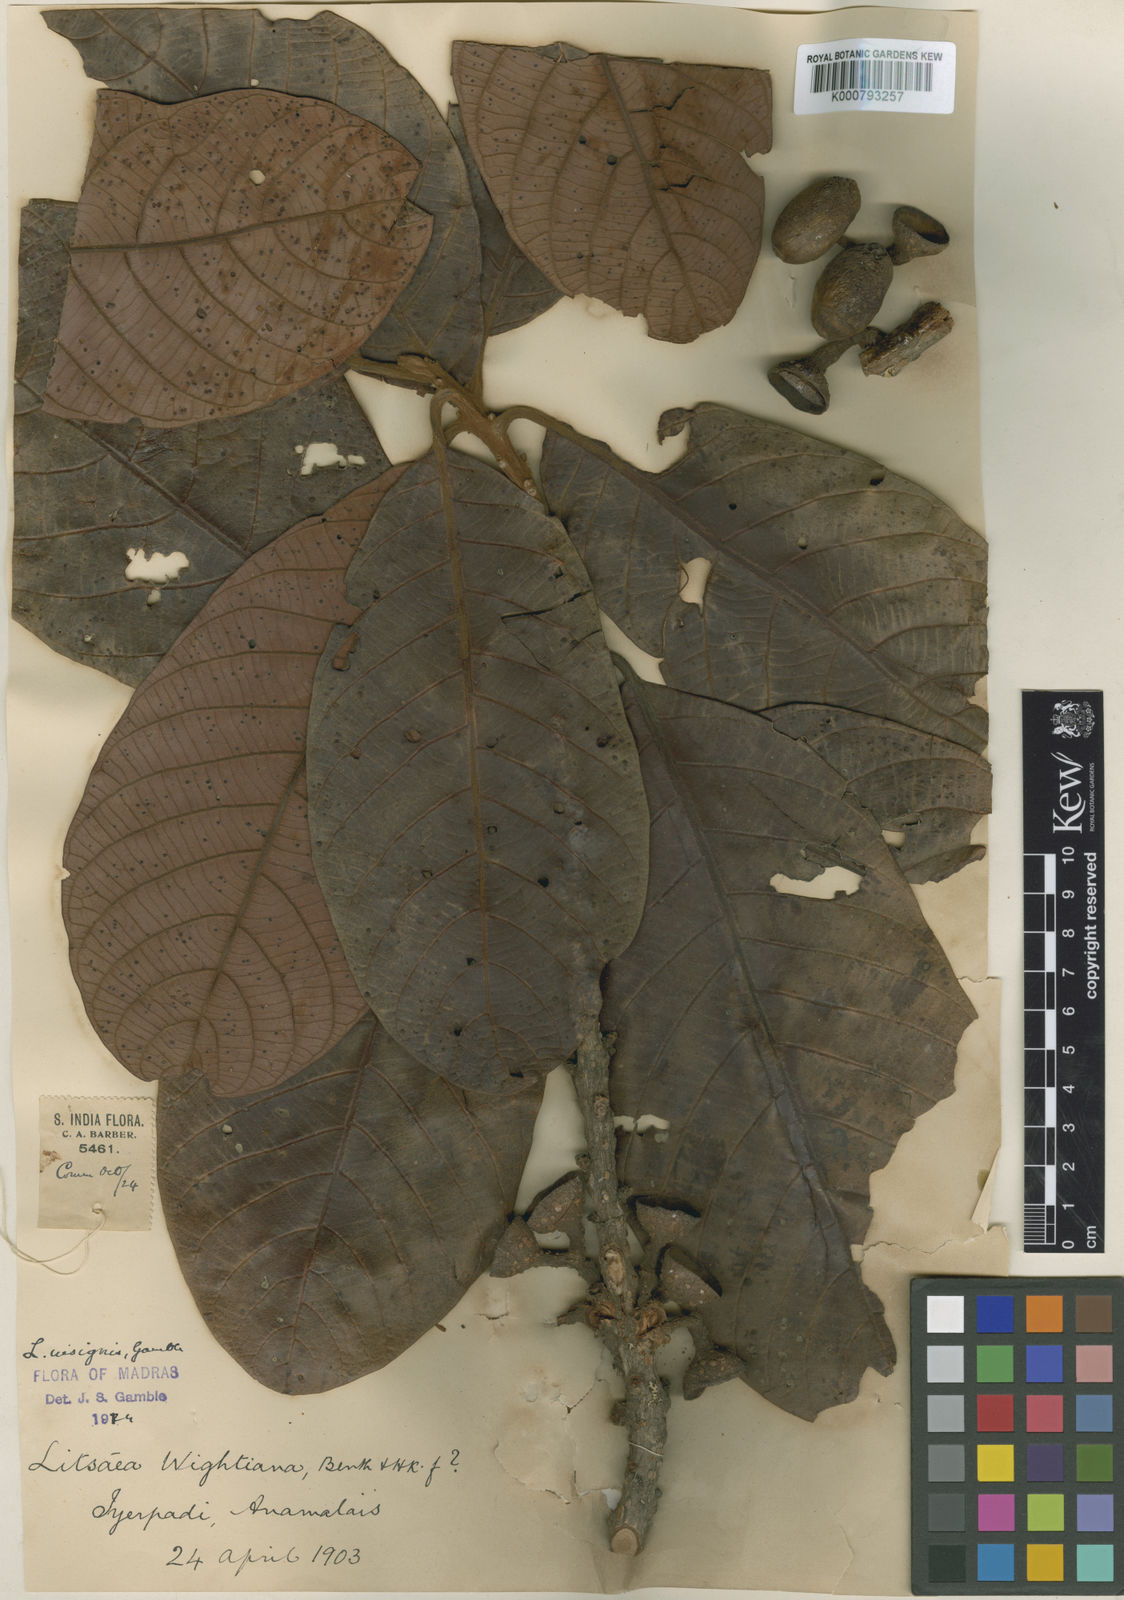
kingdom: Plantae
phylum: Tracheophyta
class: Magnoliopsida
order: Laurales
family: Lauraceae
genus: Litsea
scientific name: Litsea keralana
